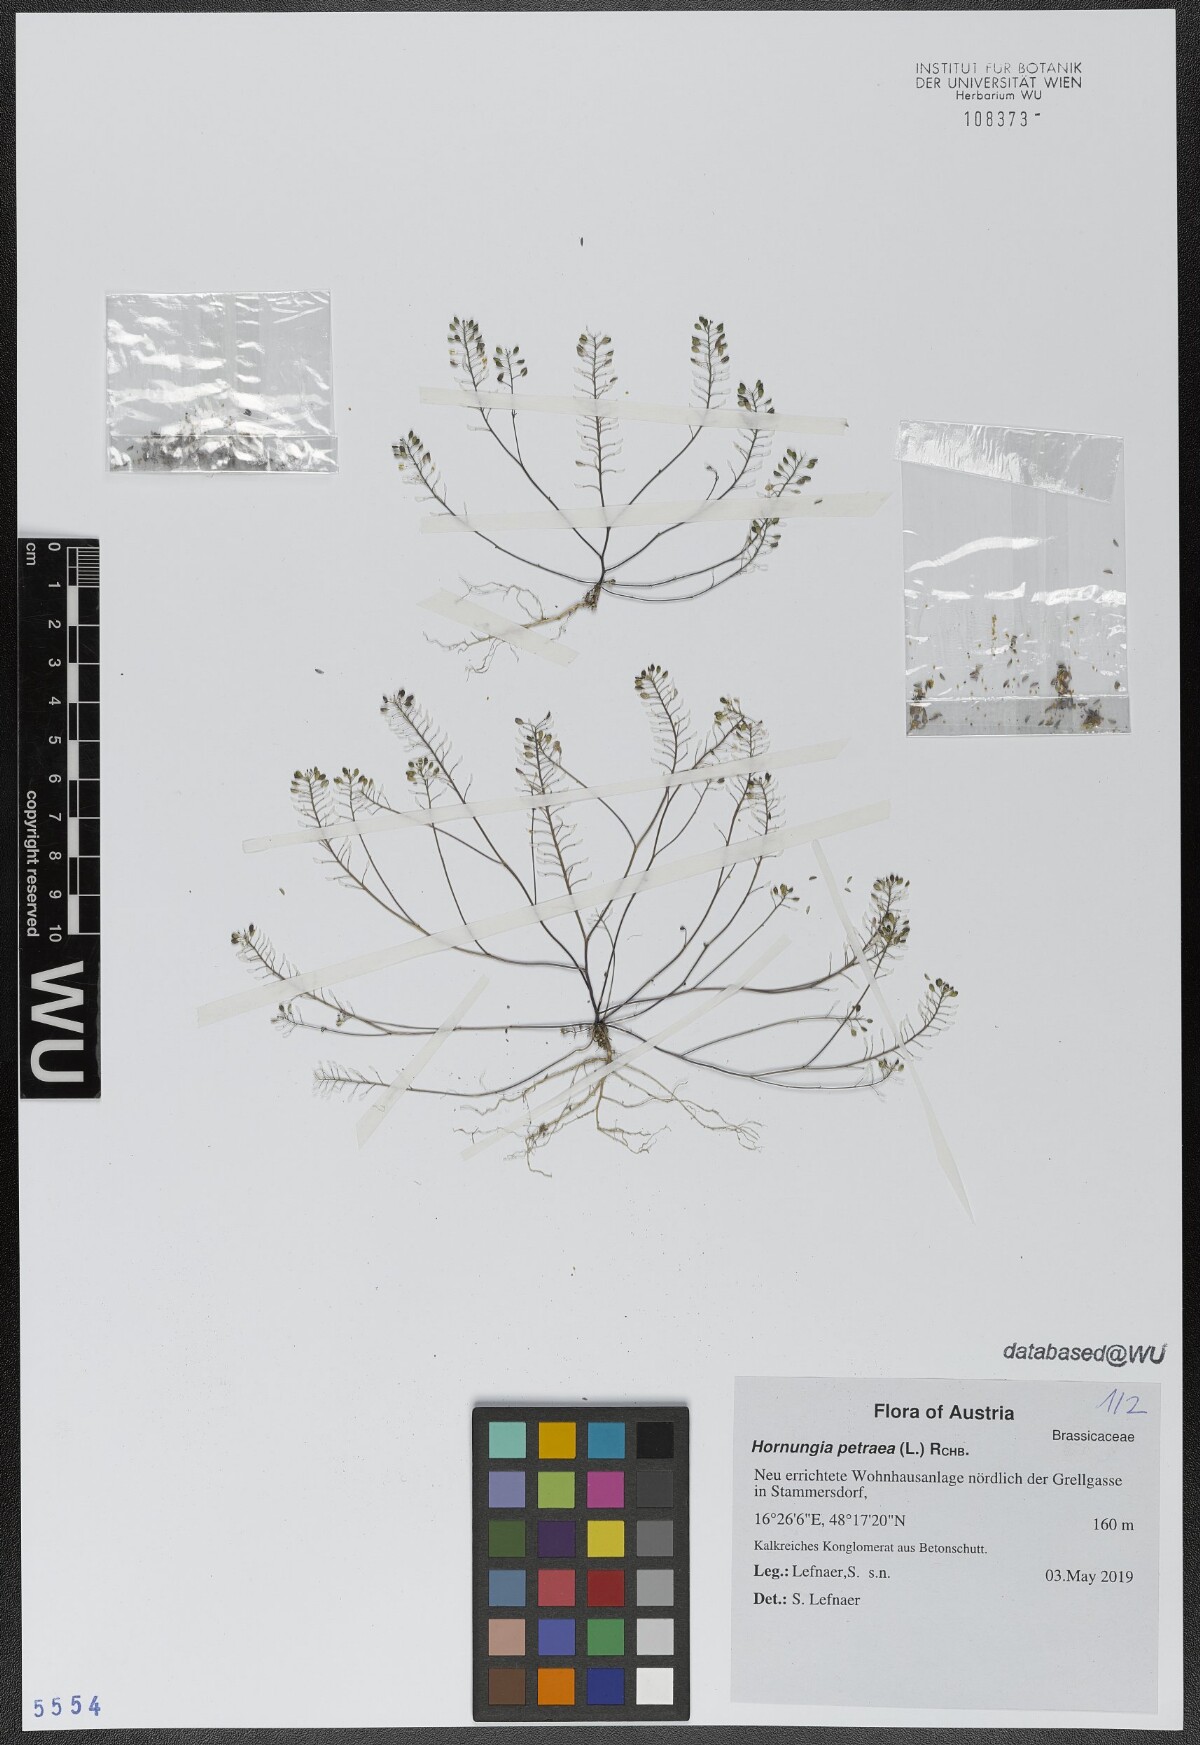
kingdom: Plantae
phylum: Tracheophyta
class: Magnoliopsida
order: Brassicales
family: Brassicaceae
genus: Hornungia
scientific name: Hornungia petraea
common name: Hutchinsia
